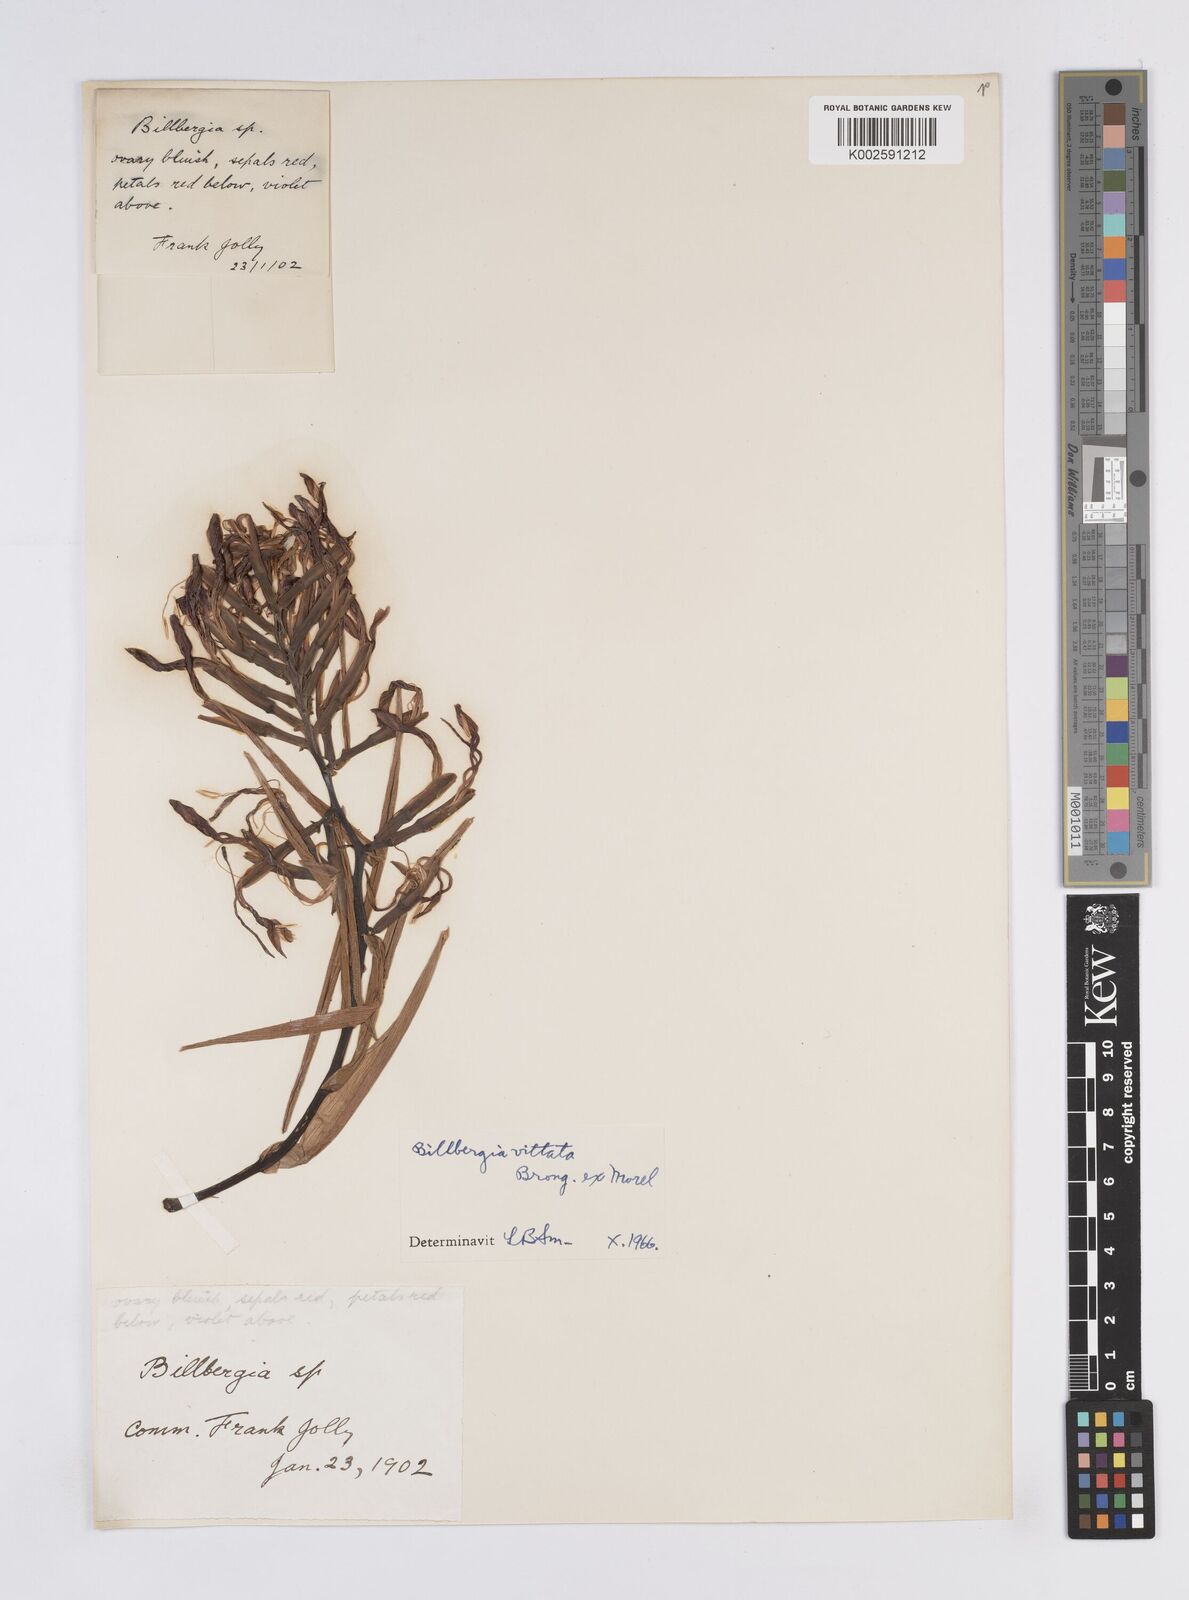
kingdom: Plantae
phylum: Tracheophyta
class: Liliopsida
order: Poales
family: Bromeliaceae
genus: Billbergia
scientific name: Billbergia vittata
